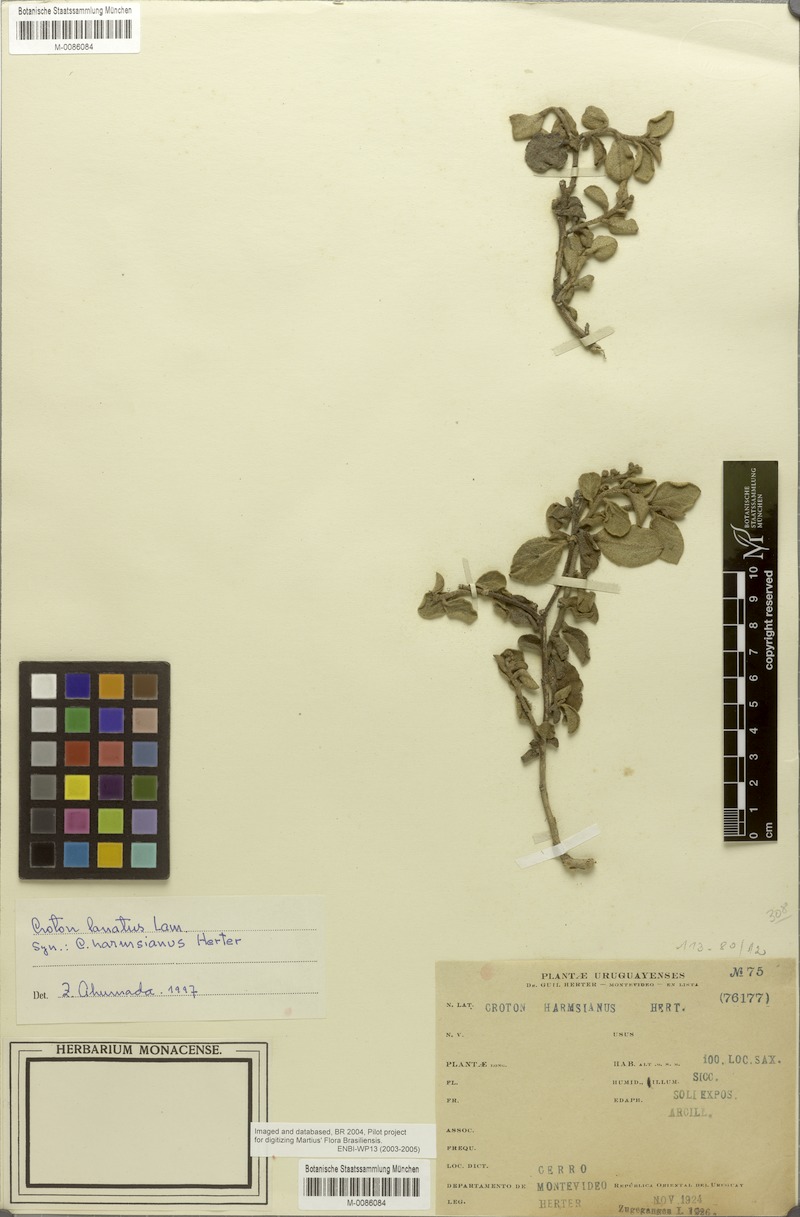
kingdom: Plantae
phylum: Tracheophyta
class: Magnoliopsida
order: Malpighiales
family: Euphorbiaceae
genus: Croton
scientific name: Croton lanatus
